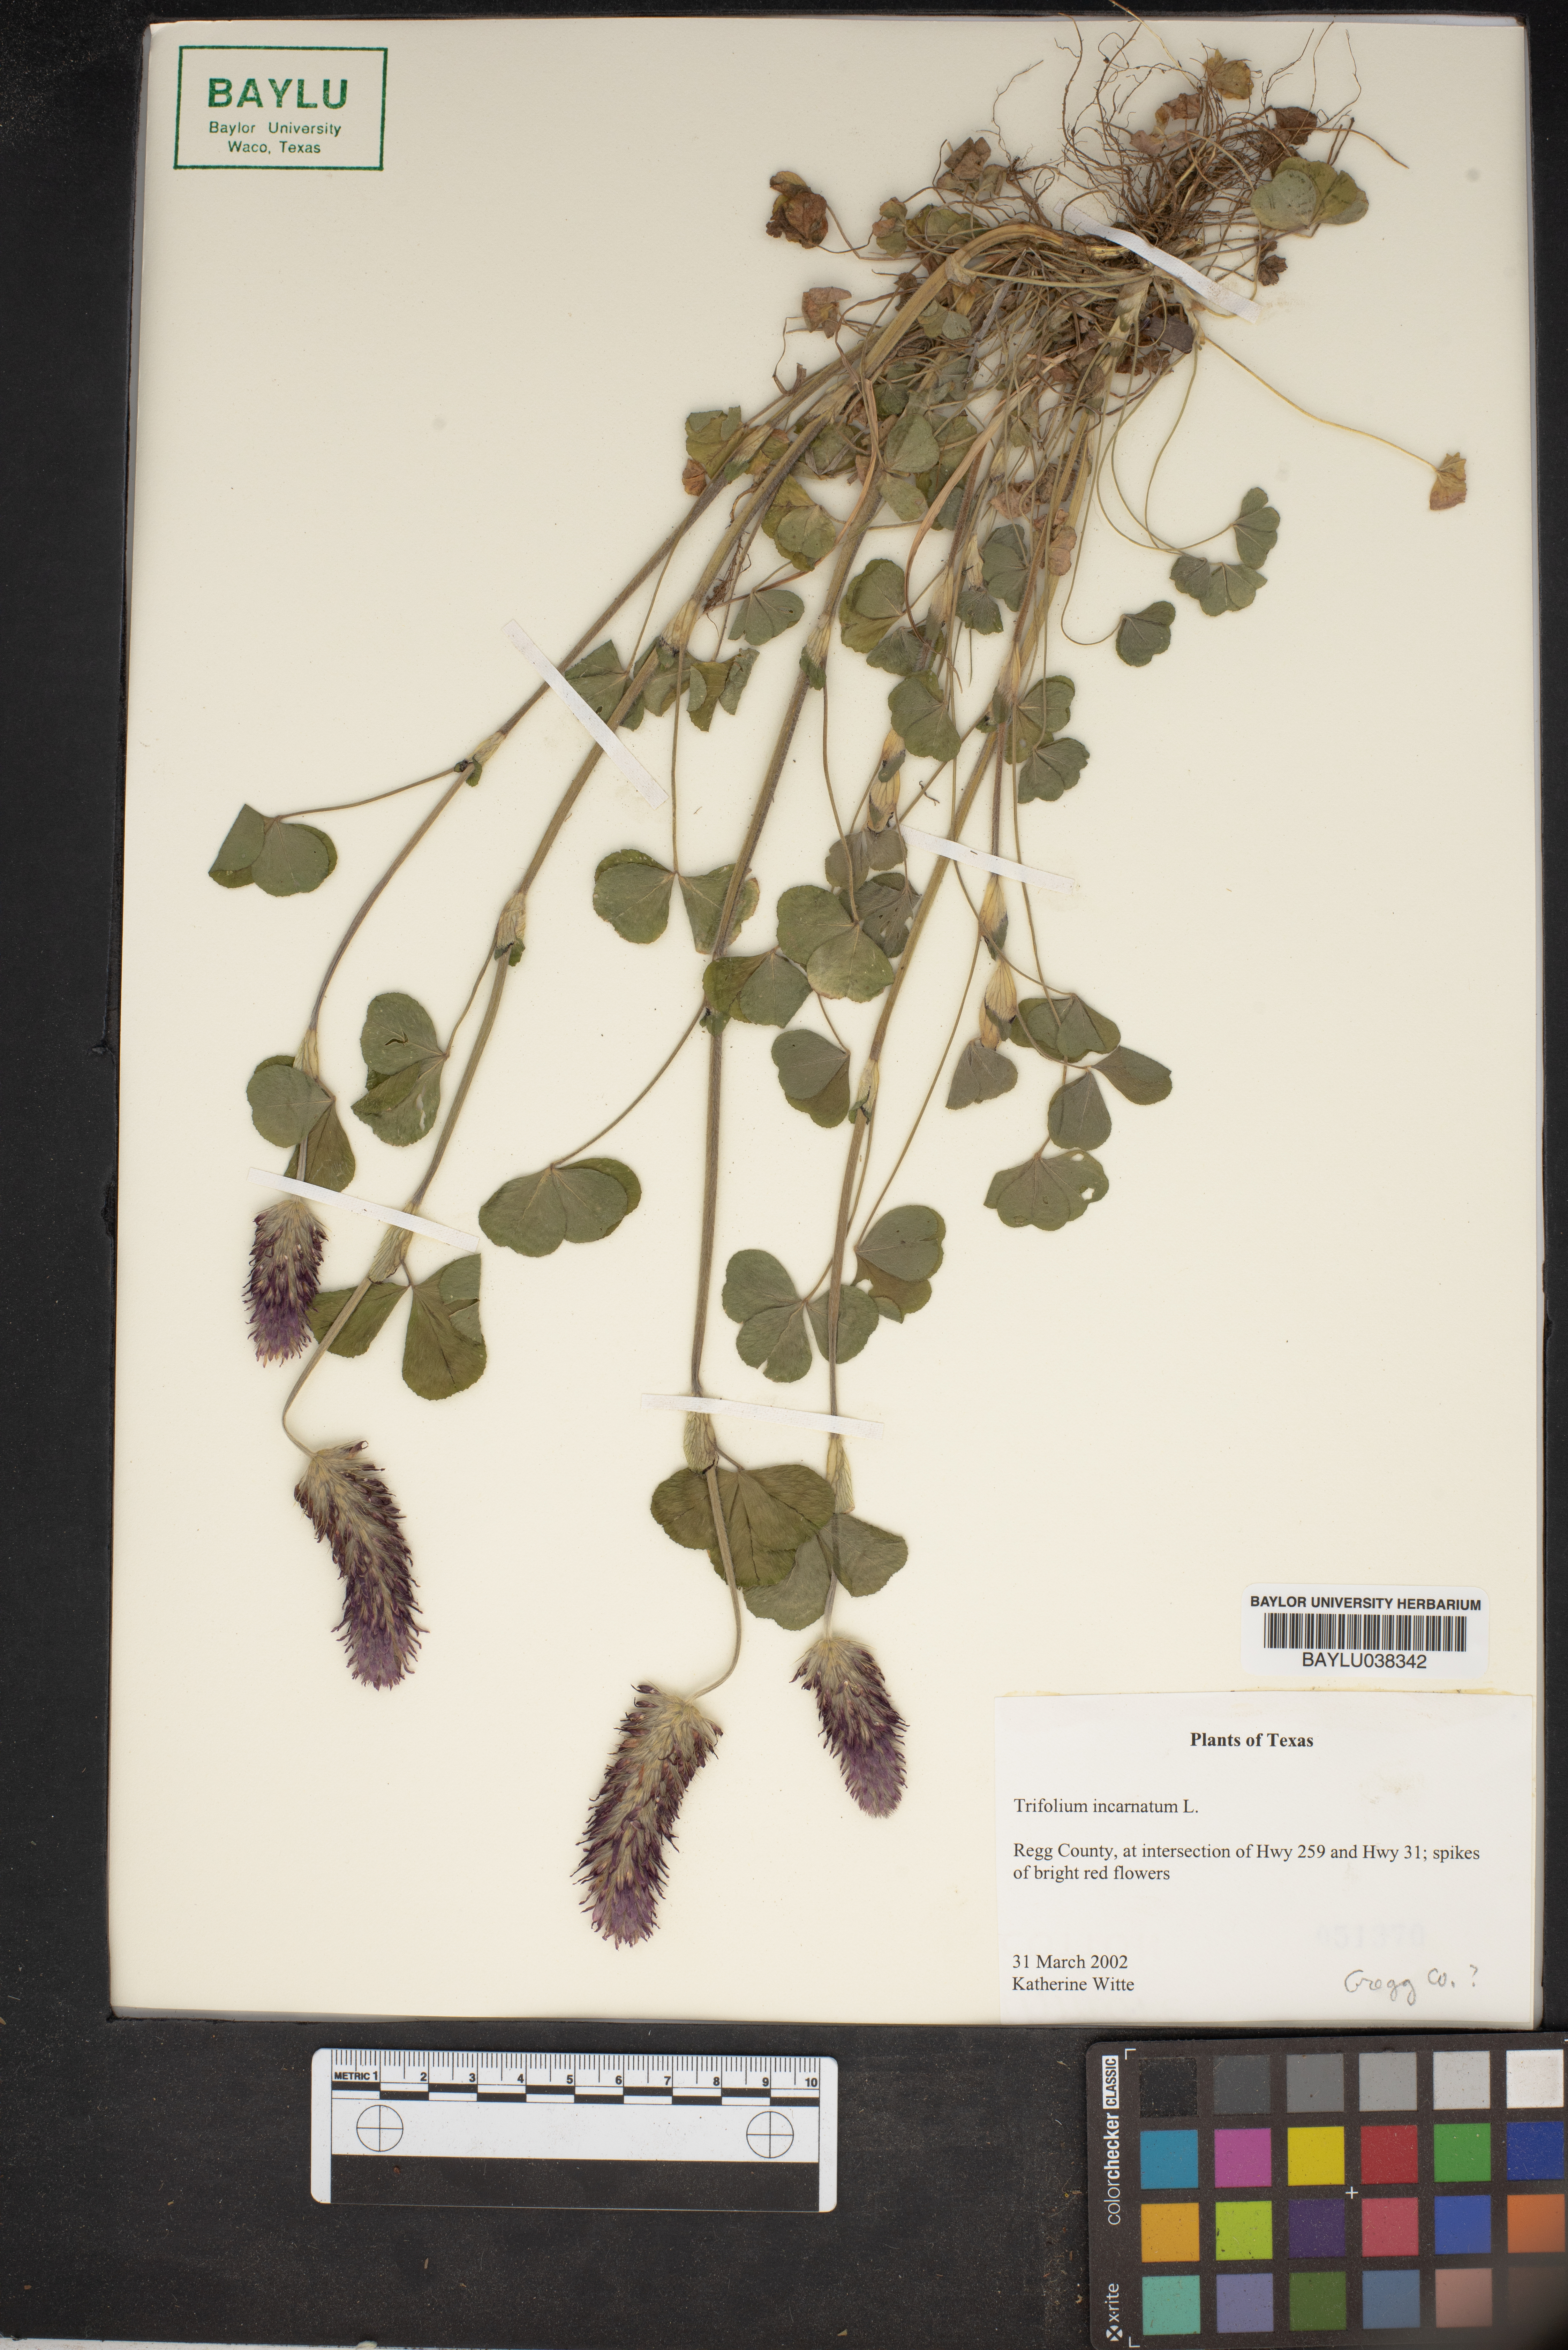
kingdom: Plantae
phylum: Tracheophyta
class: Magnoliopsida
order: Fabales
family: Fabaceae
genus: Trifolium
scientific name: Trifolium incarnatum
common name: Crimson clover
